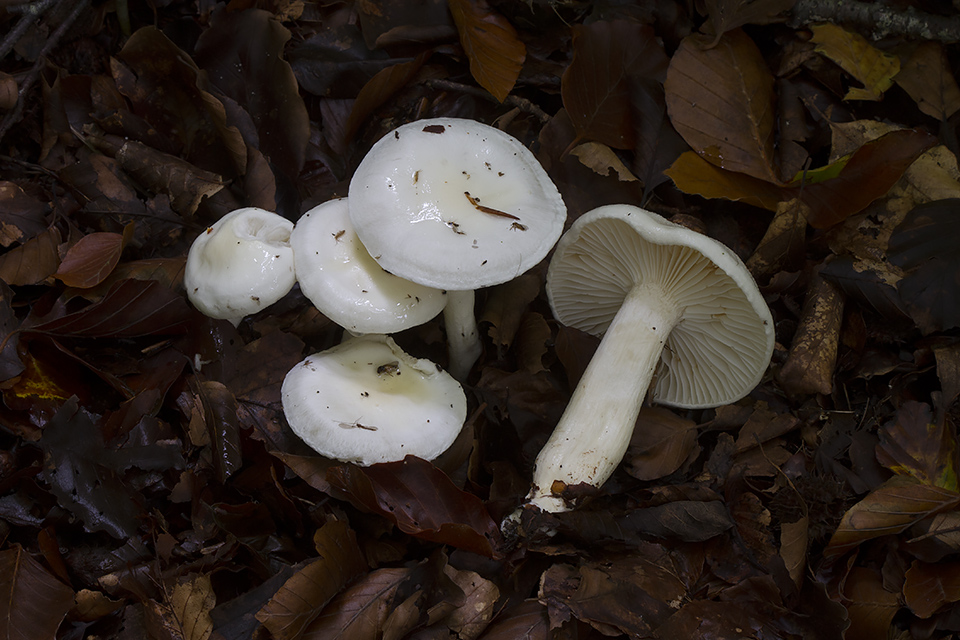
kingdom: Fungi
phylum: Basidiomycota
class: Agaricomycetes
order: Agaricales
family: Hygrophoraceae
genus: Hygrophorus
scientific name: Hygrophorus discoxanthus
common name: ildelugtende sneglehat
